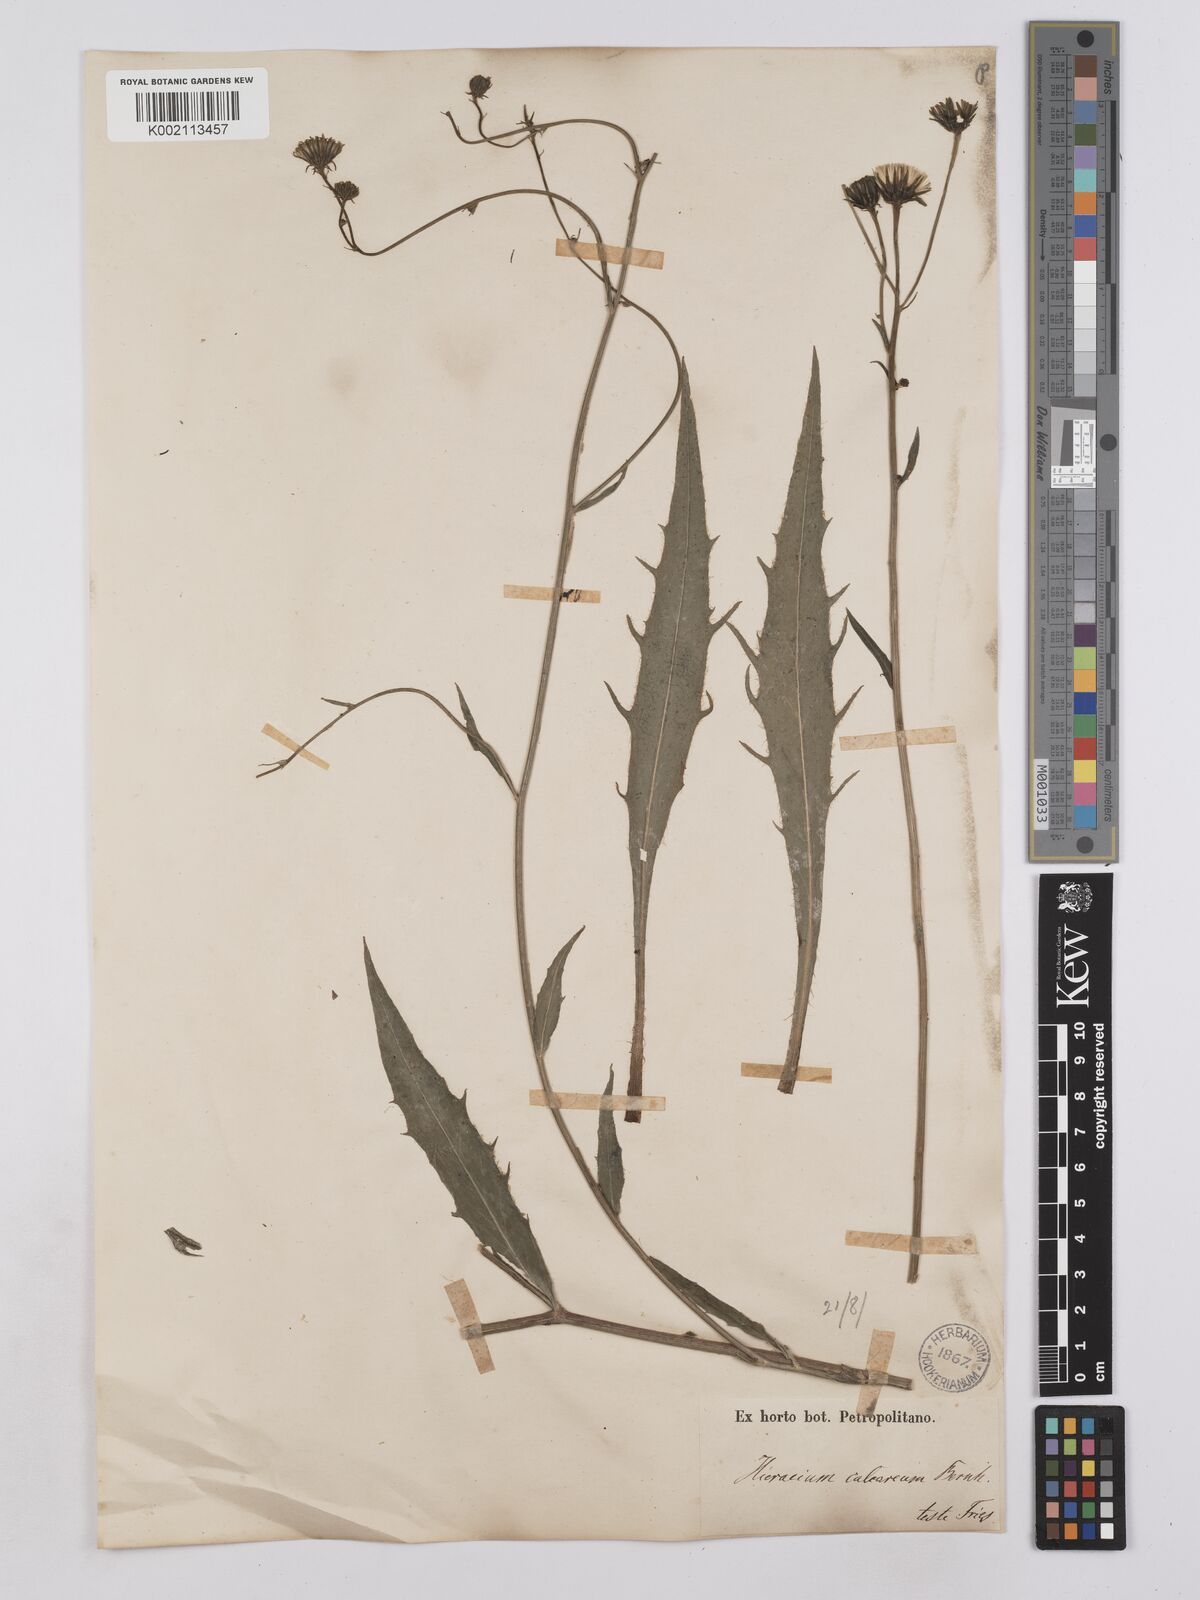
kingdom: Plantae
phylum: Tracheophyta
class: Magnoliopsida
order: Asterales
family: Asteraceae
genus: Hieracium
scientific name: Hieracium calcareum
